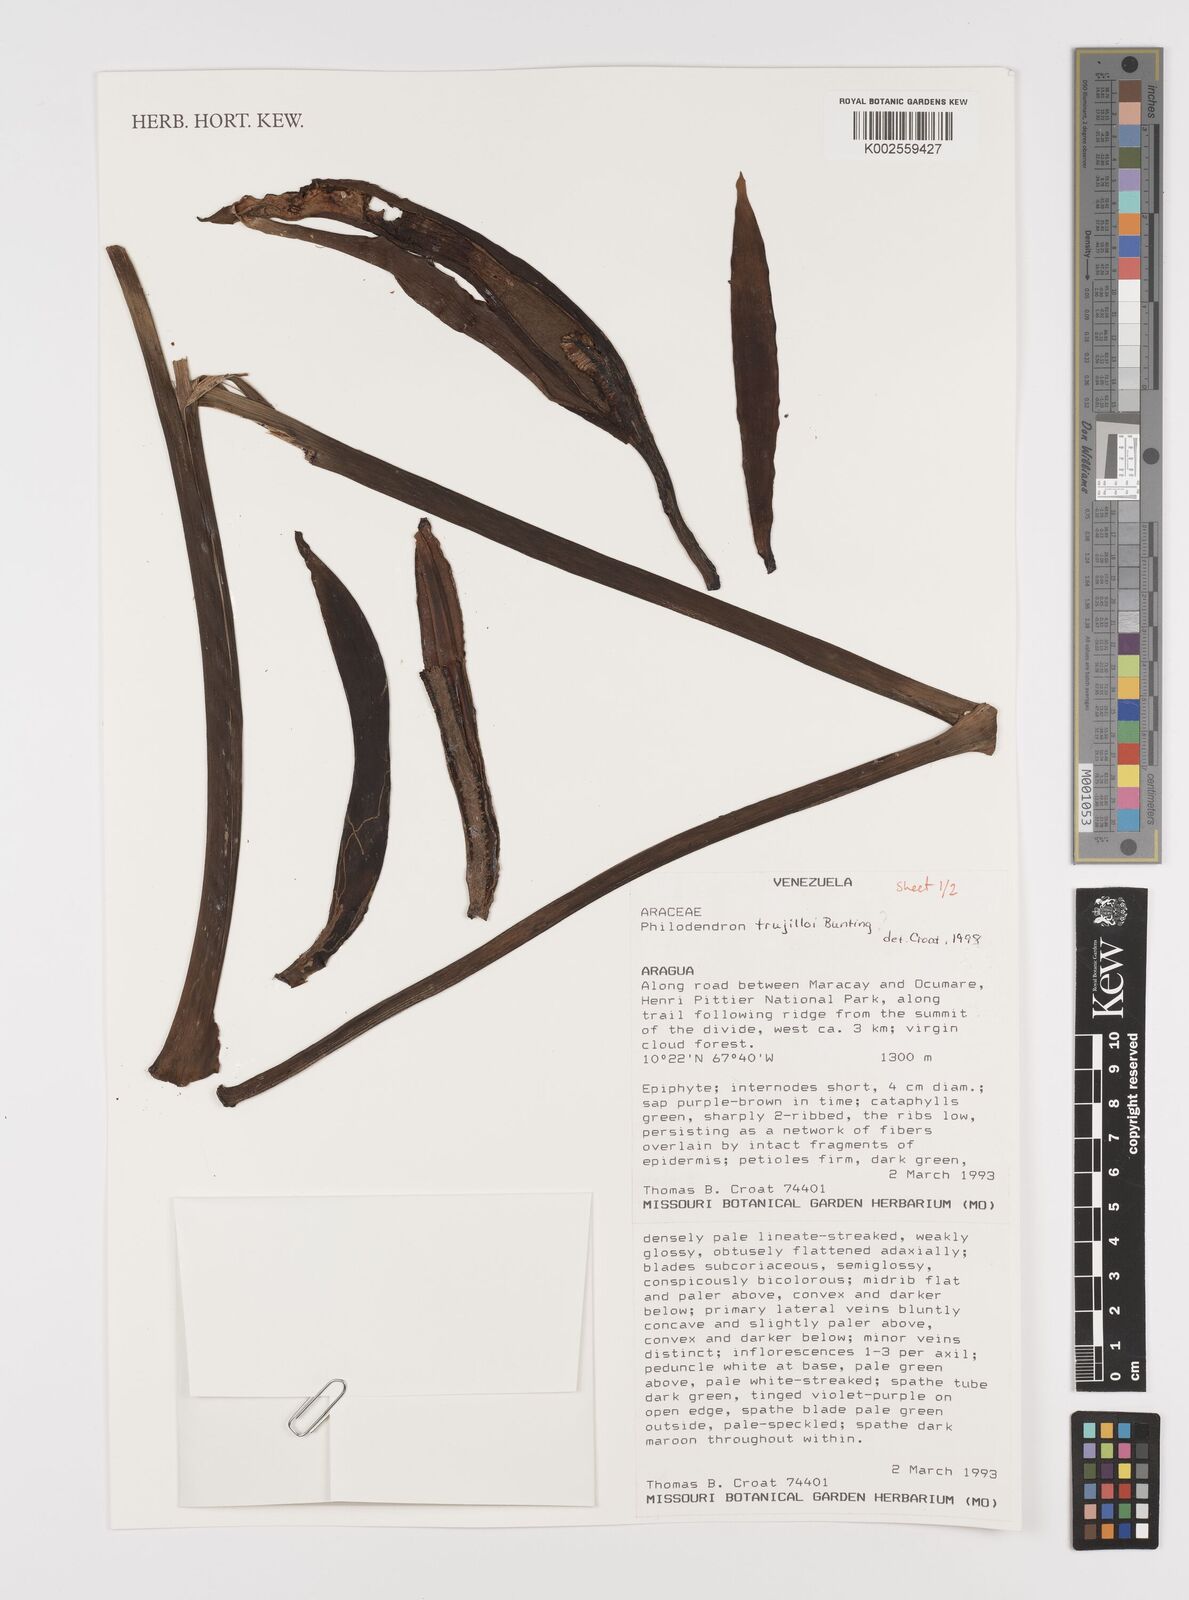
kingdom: Plantae
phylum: Tracheophyta
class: Liliopsida
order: Alismatales
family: Araceae
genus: Philodendron
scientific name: Philodendron trujilloi
